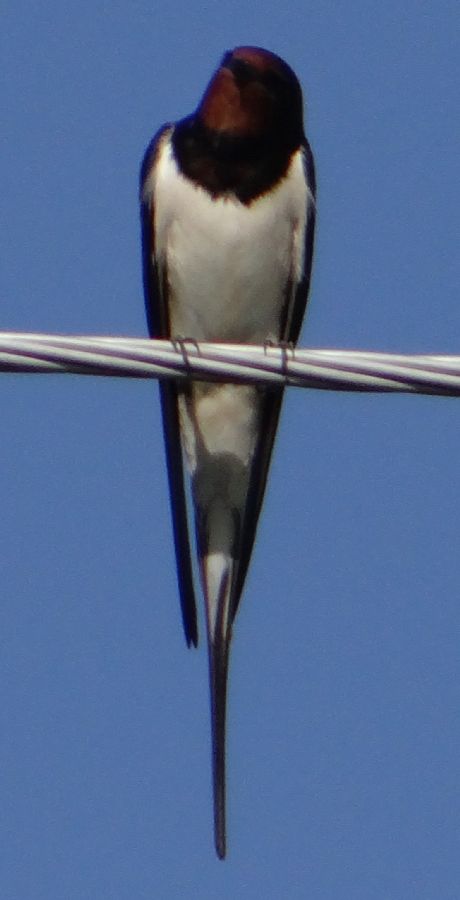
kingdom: Animalia
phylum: Chordata
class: Aves
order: Passeriformes
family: Hirundinidae
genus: Hirundo
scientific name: Hirundo rustica
